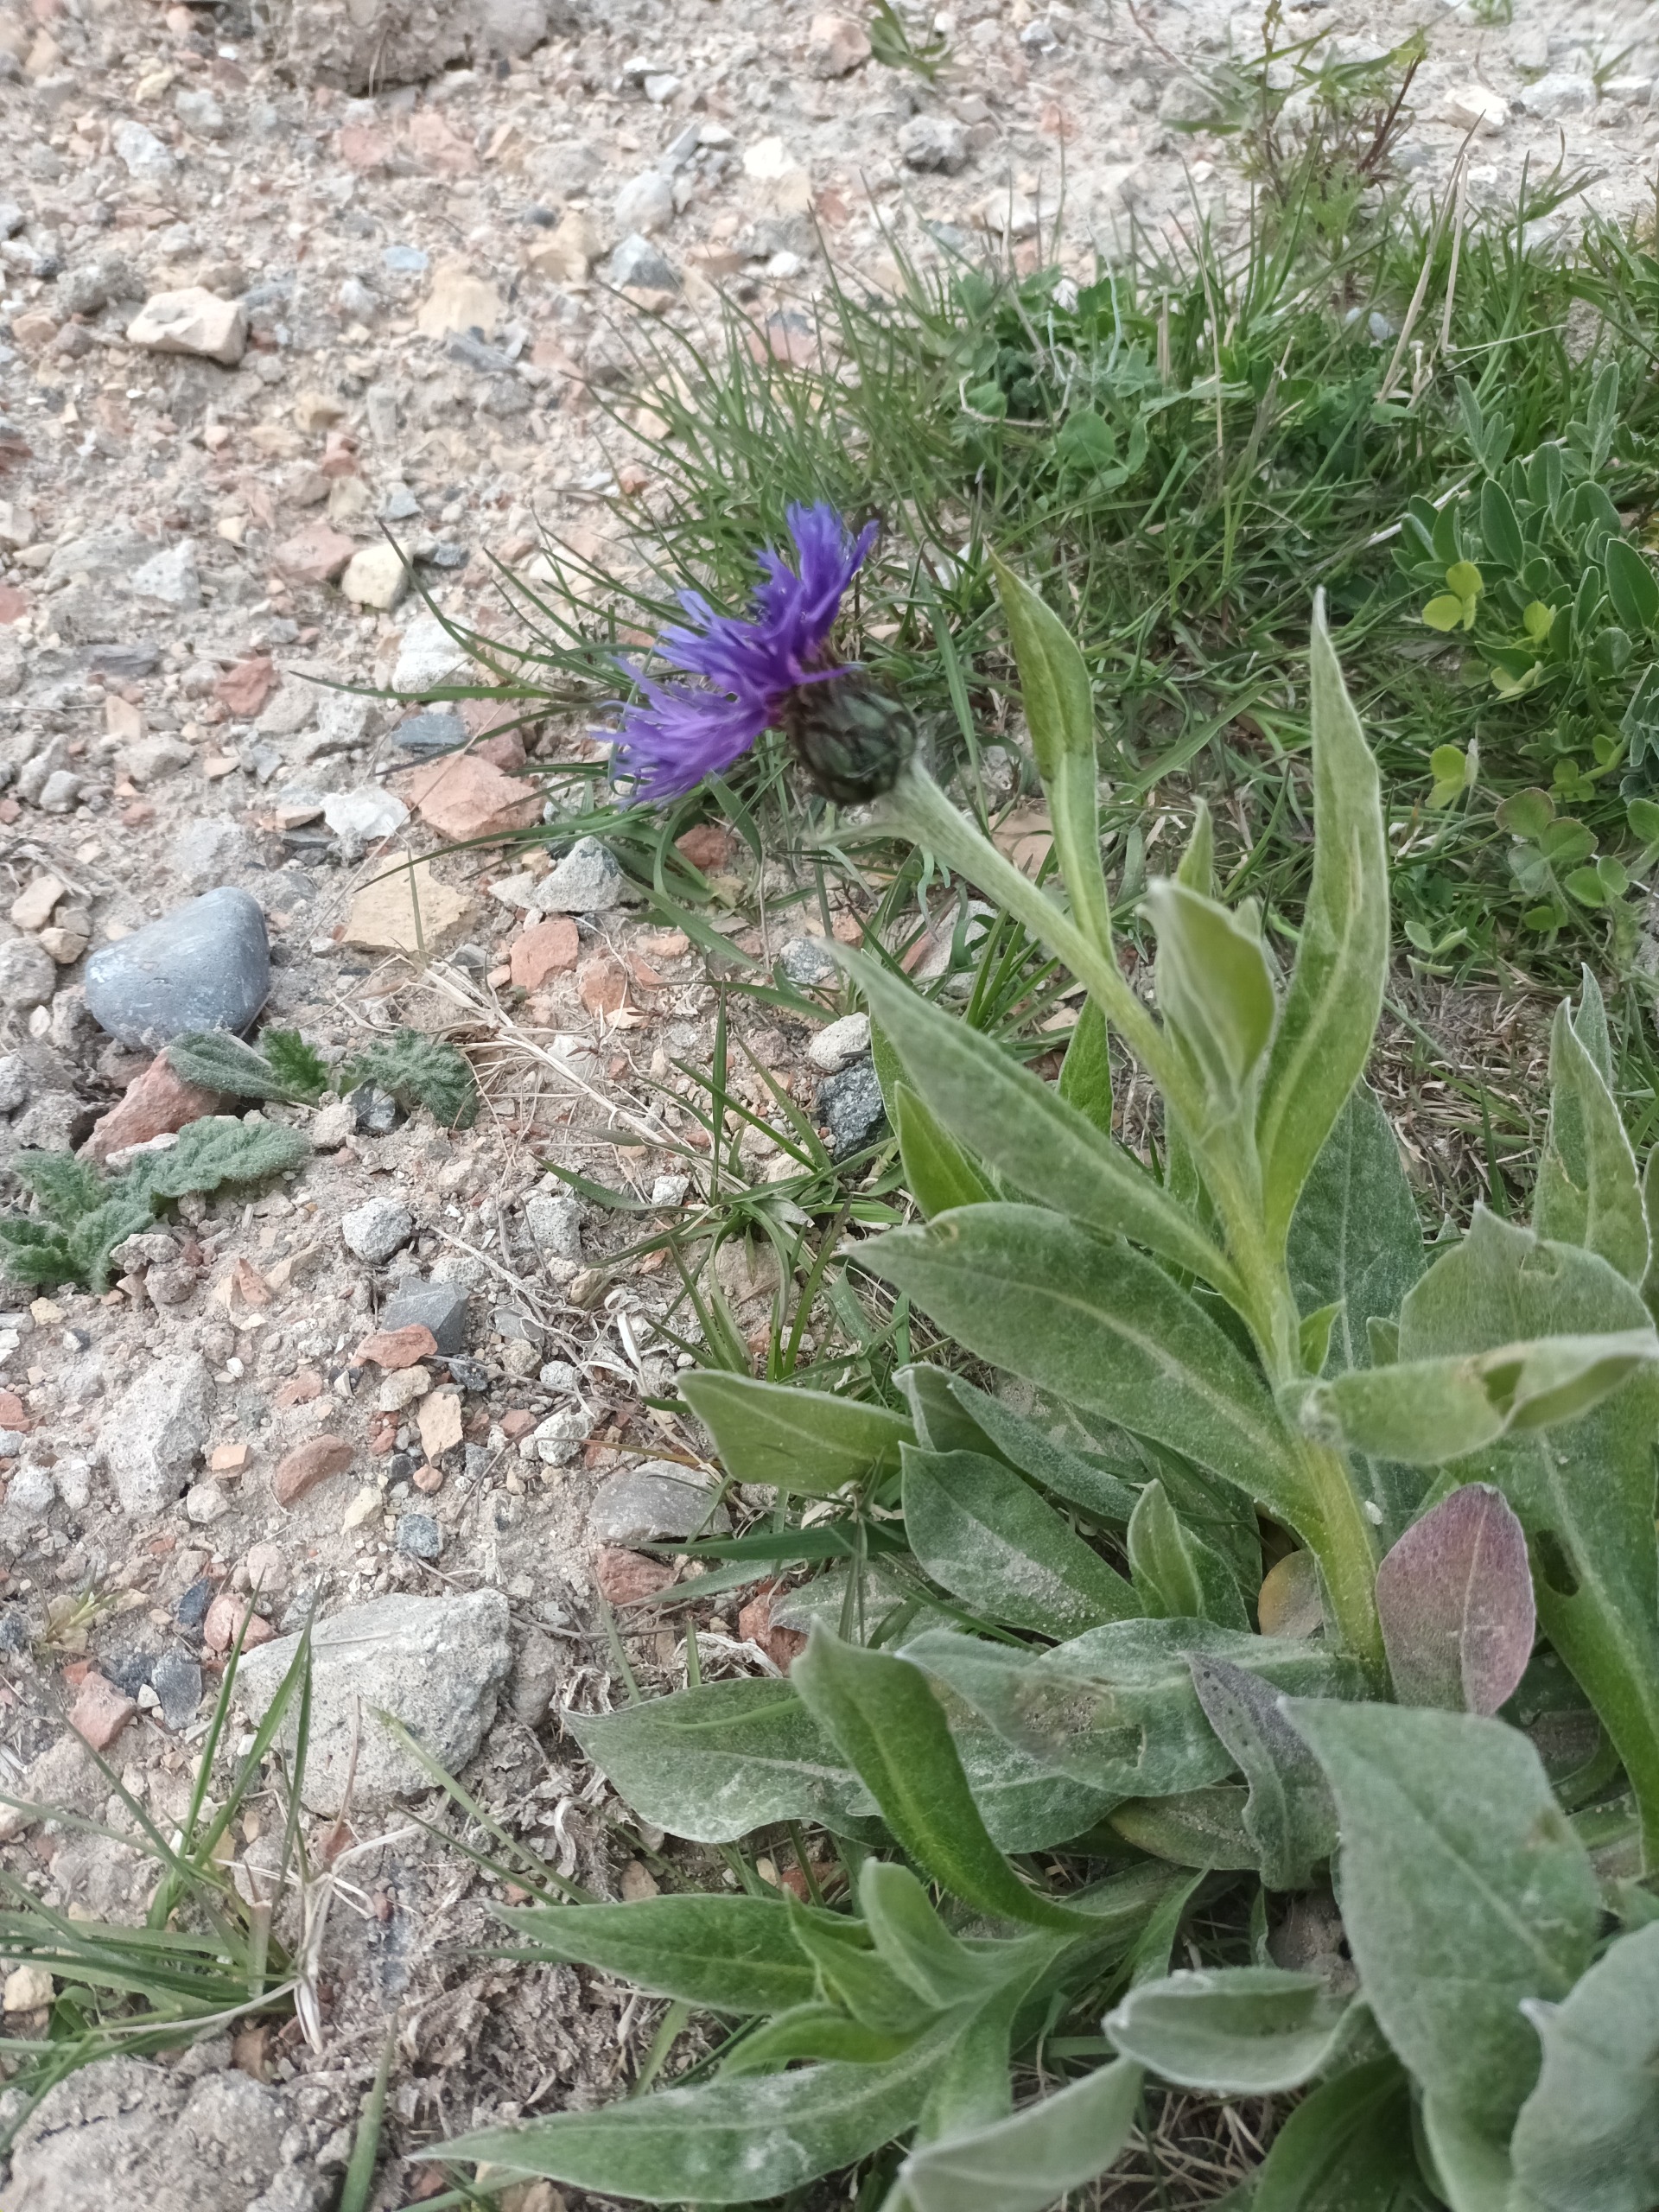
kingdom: Plantae
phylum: Tracheophyta
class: Magnoliopsida
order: Asterales
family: Asteraceae
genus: Centaurea
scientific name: Centaurea montana
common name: Bjerg-knopurt
